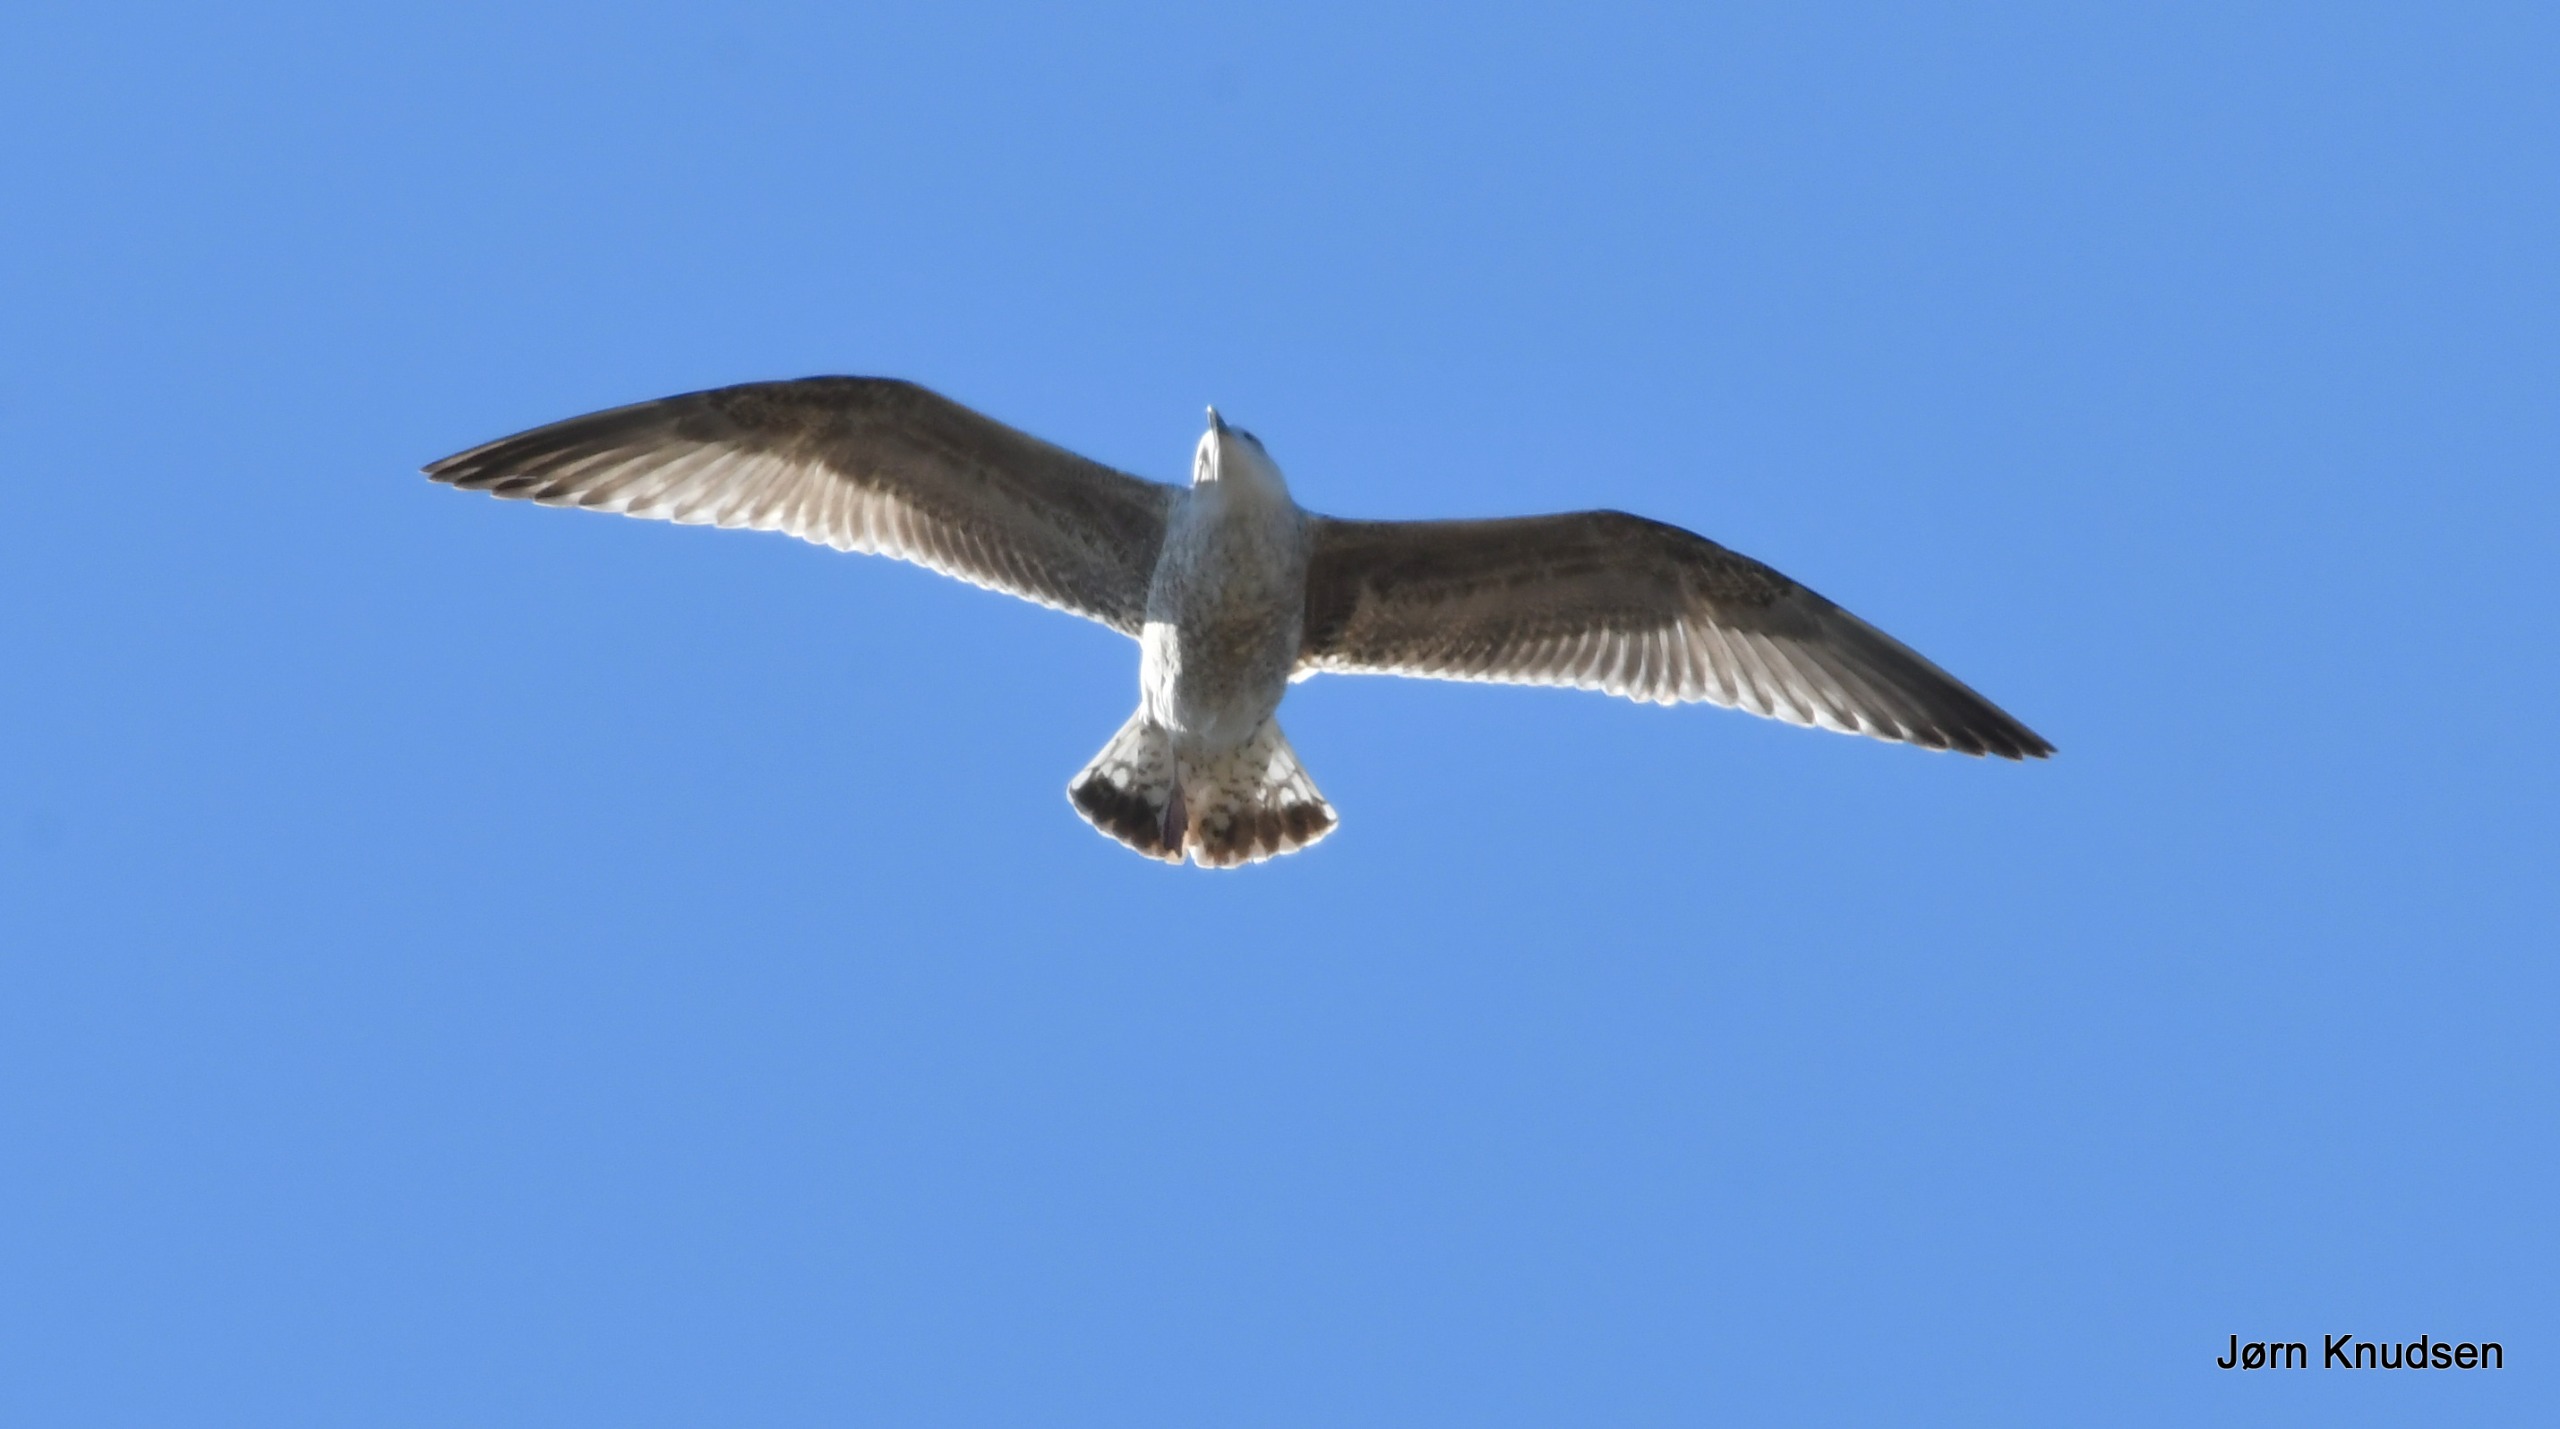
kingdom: Animalia
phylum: Chordata
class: Aves
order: Charadriiformes
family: Laridae
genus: Larus
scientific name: Larus argentatus
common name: Sølvmåge
